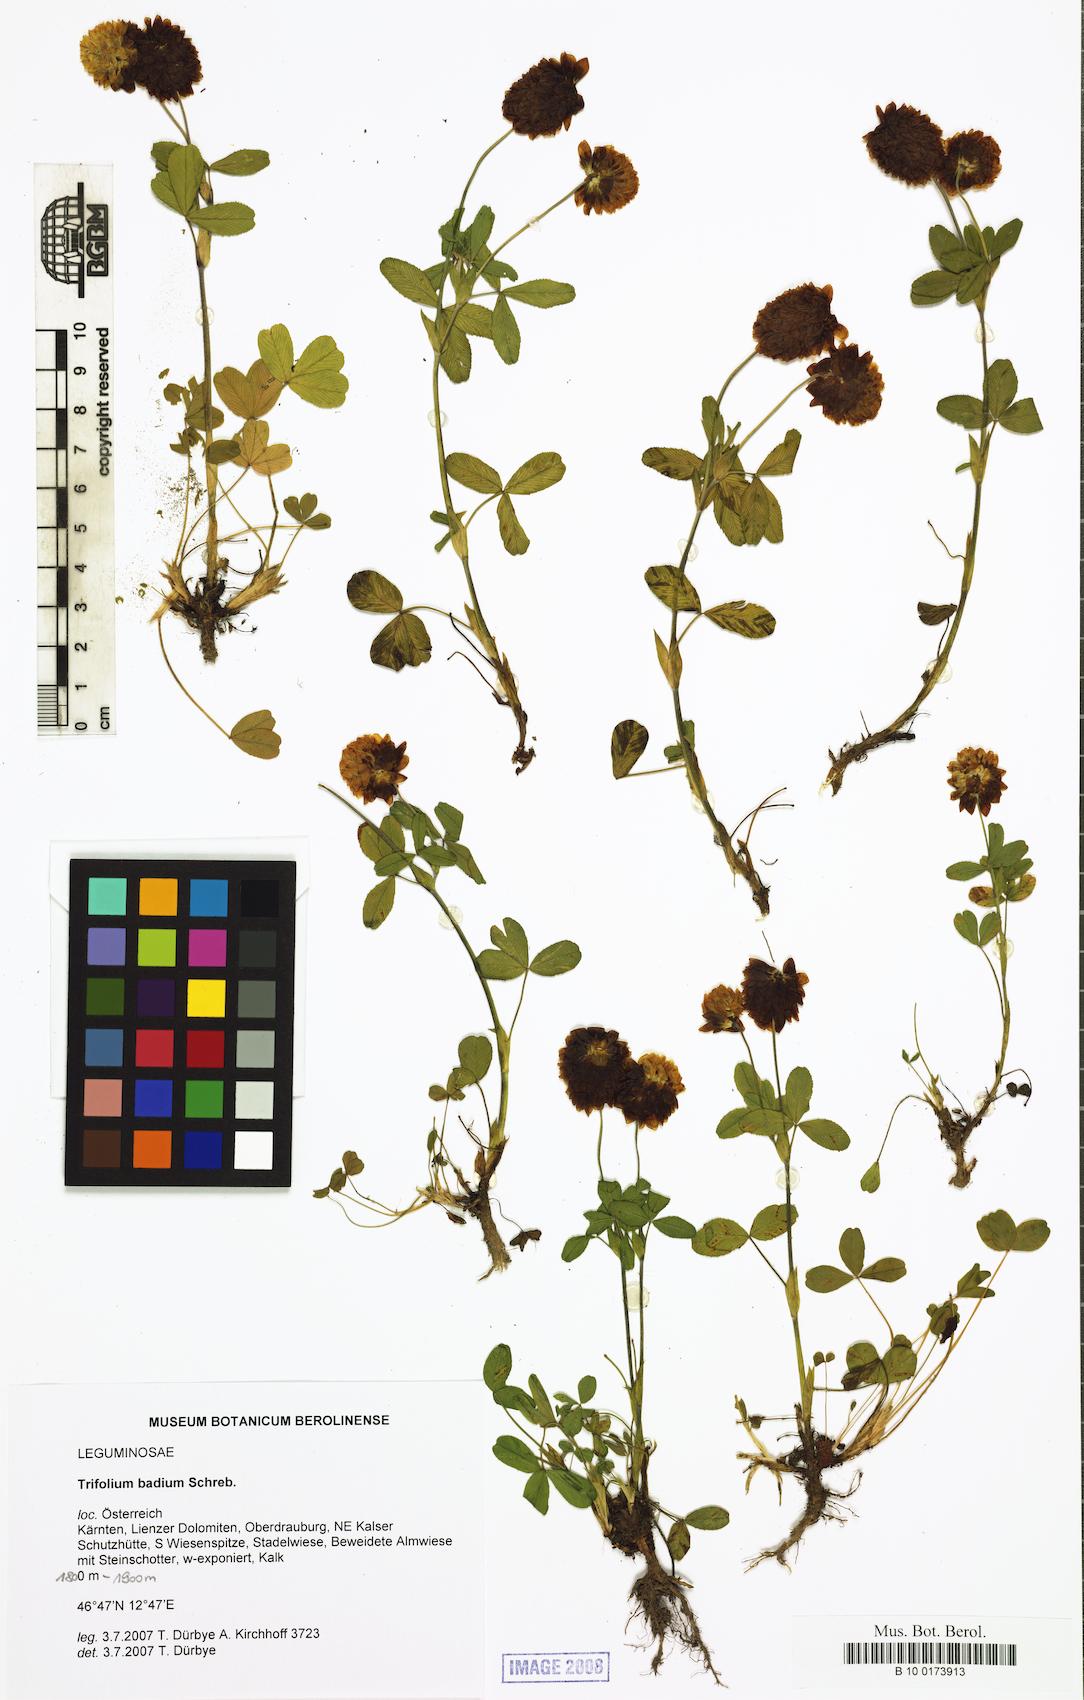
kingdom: Plantae
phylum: Tracheophyta
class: Magnoliopsida
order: Fabales
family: Fabaceae
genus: Trifolium
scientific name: Trifolium badium
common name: Brown clover
